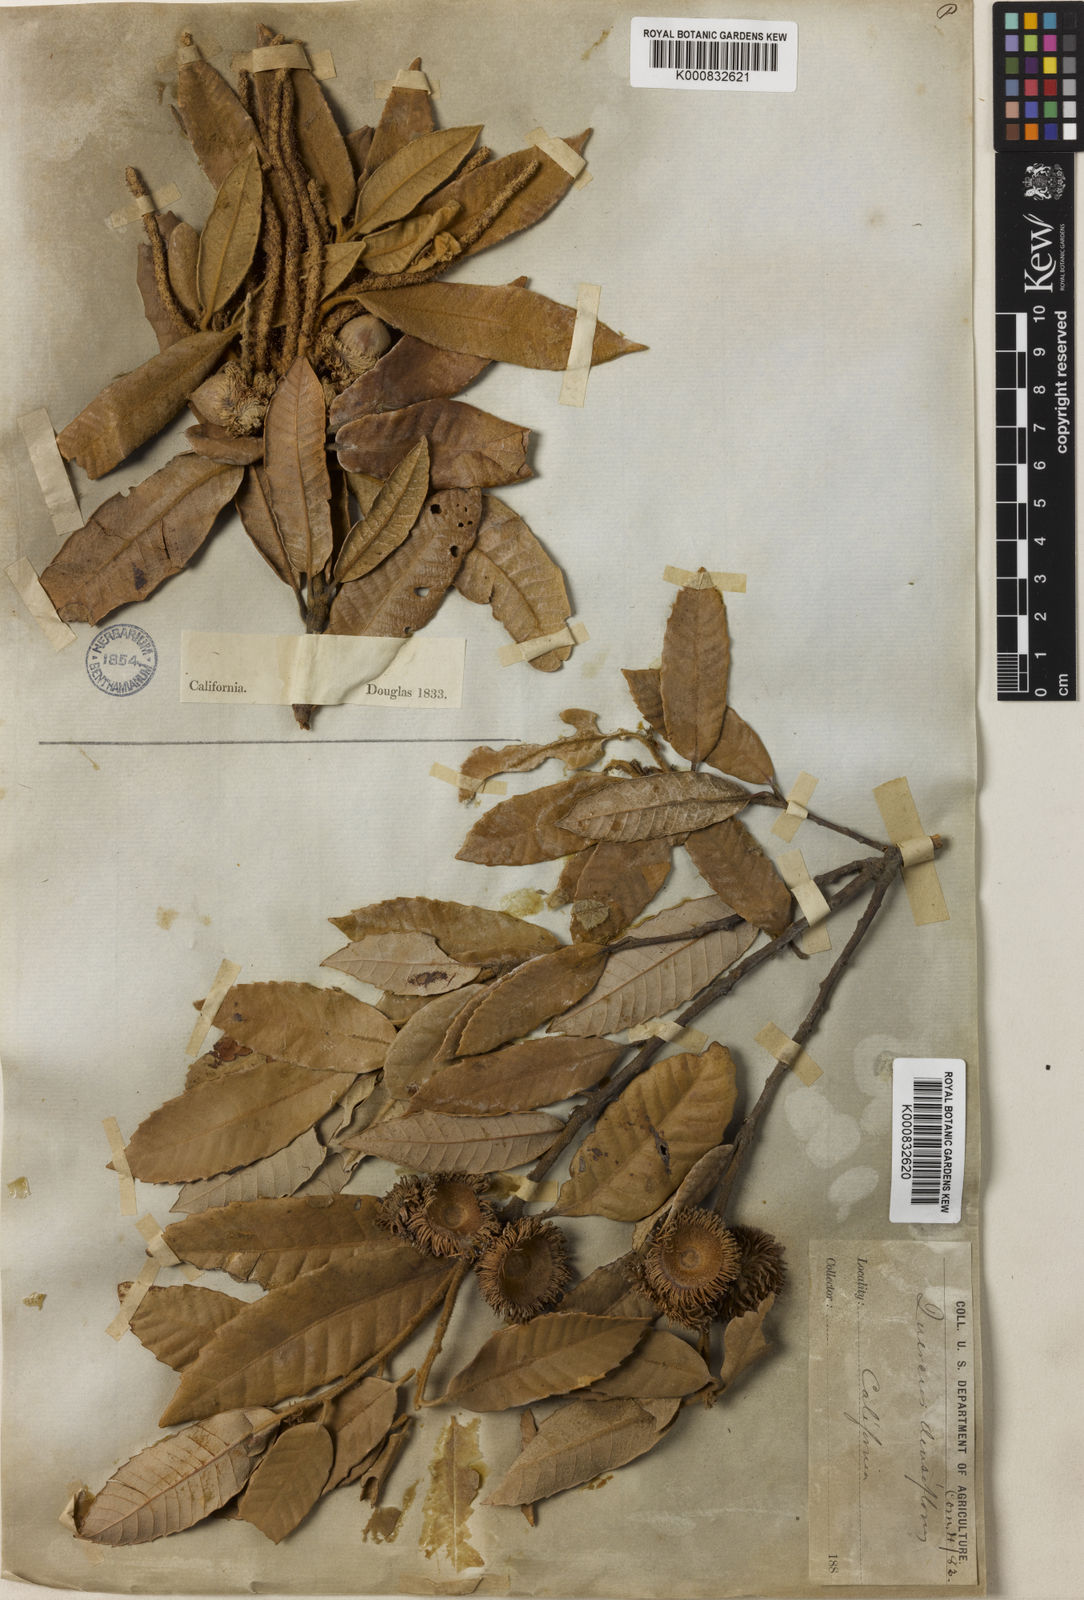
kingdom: Plantae
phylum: Tracheophyta
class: Magnoliopsida
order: Fagales
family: Fagaceae
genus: Notholithocarpus
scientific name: Notholithocarpus
